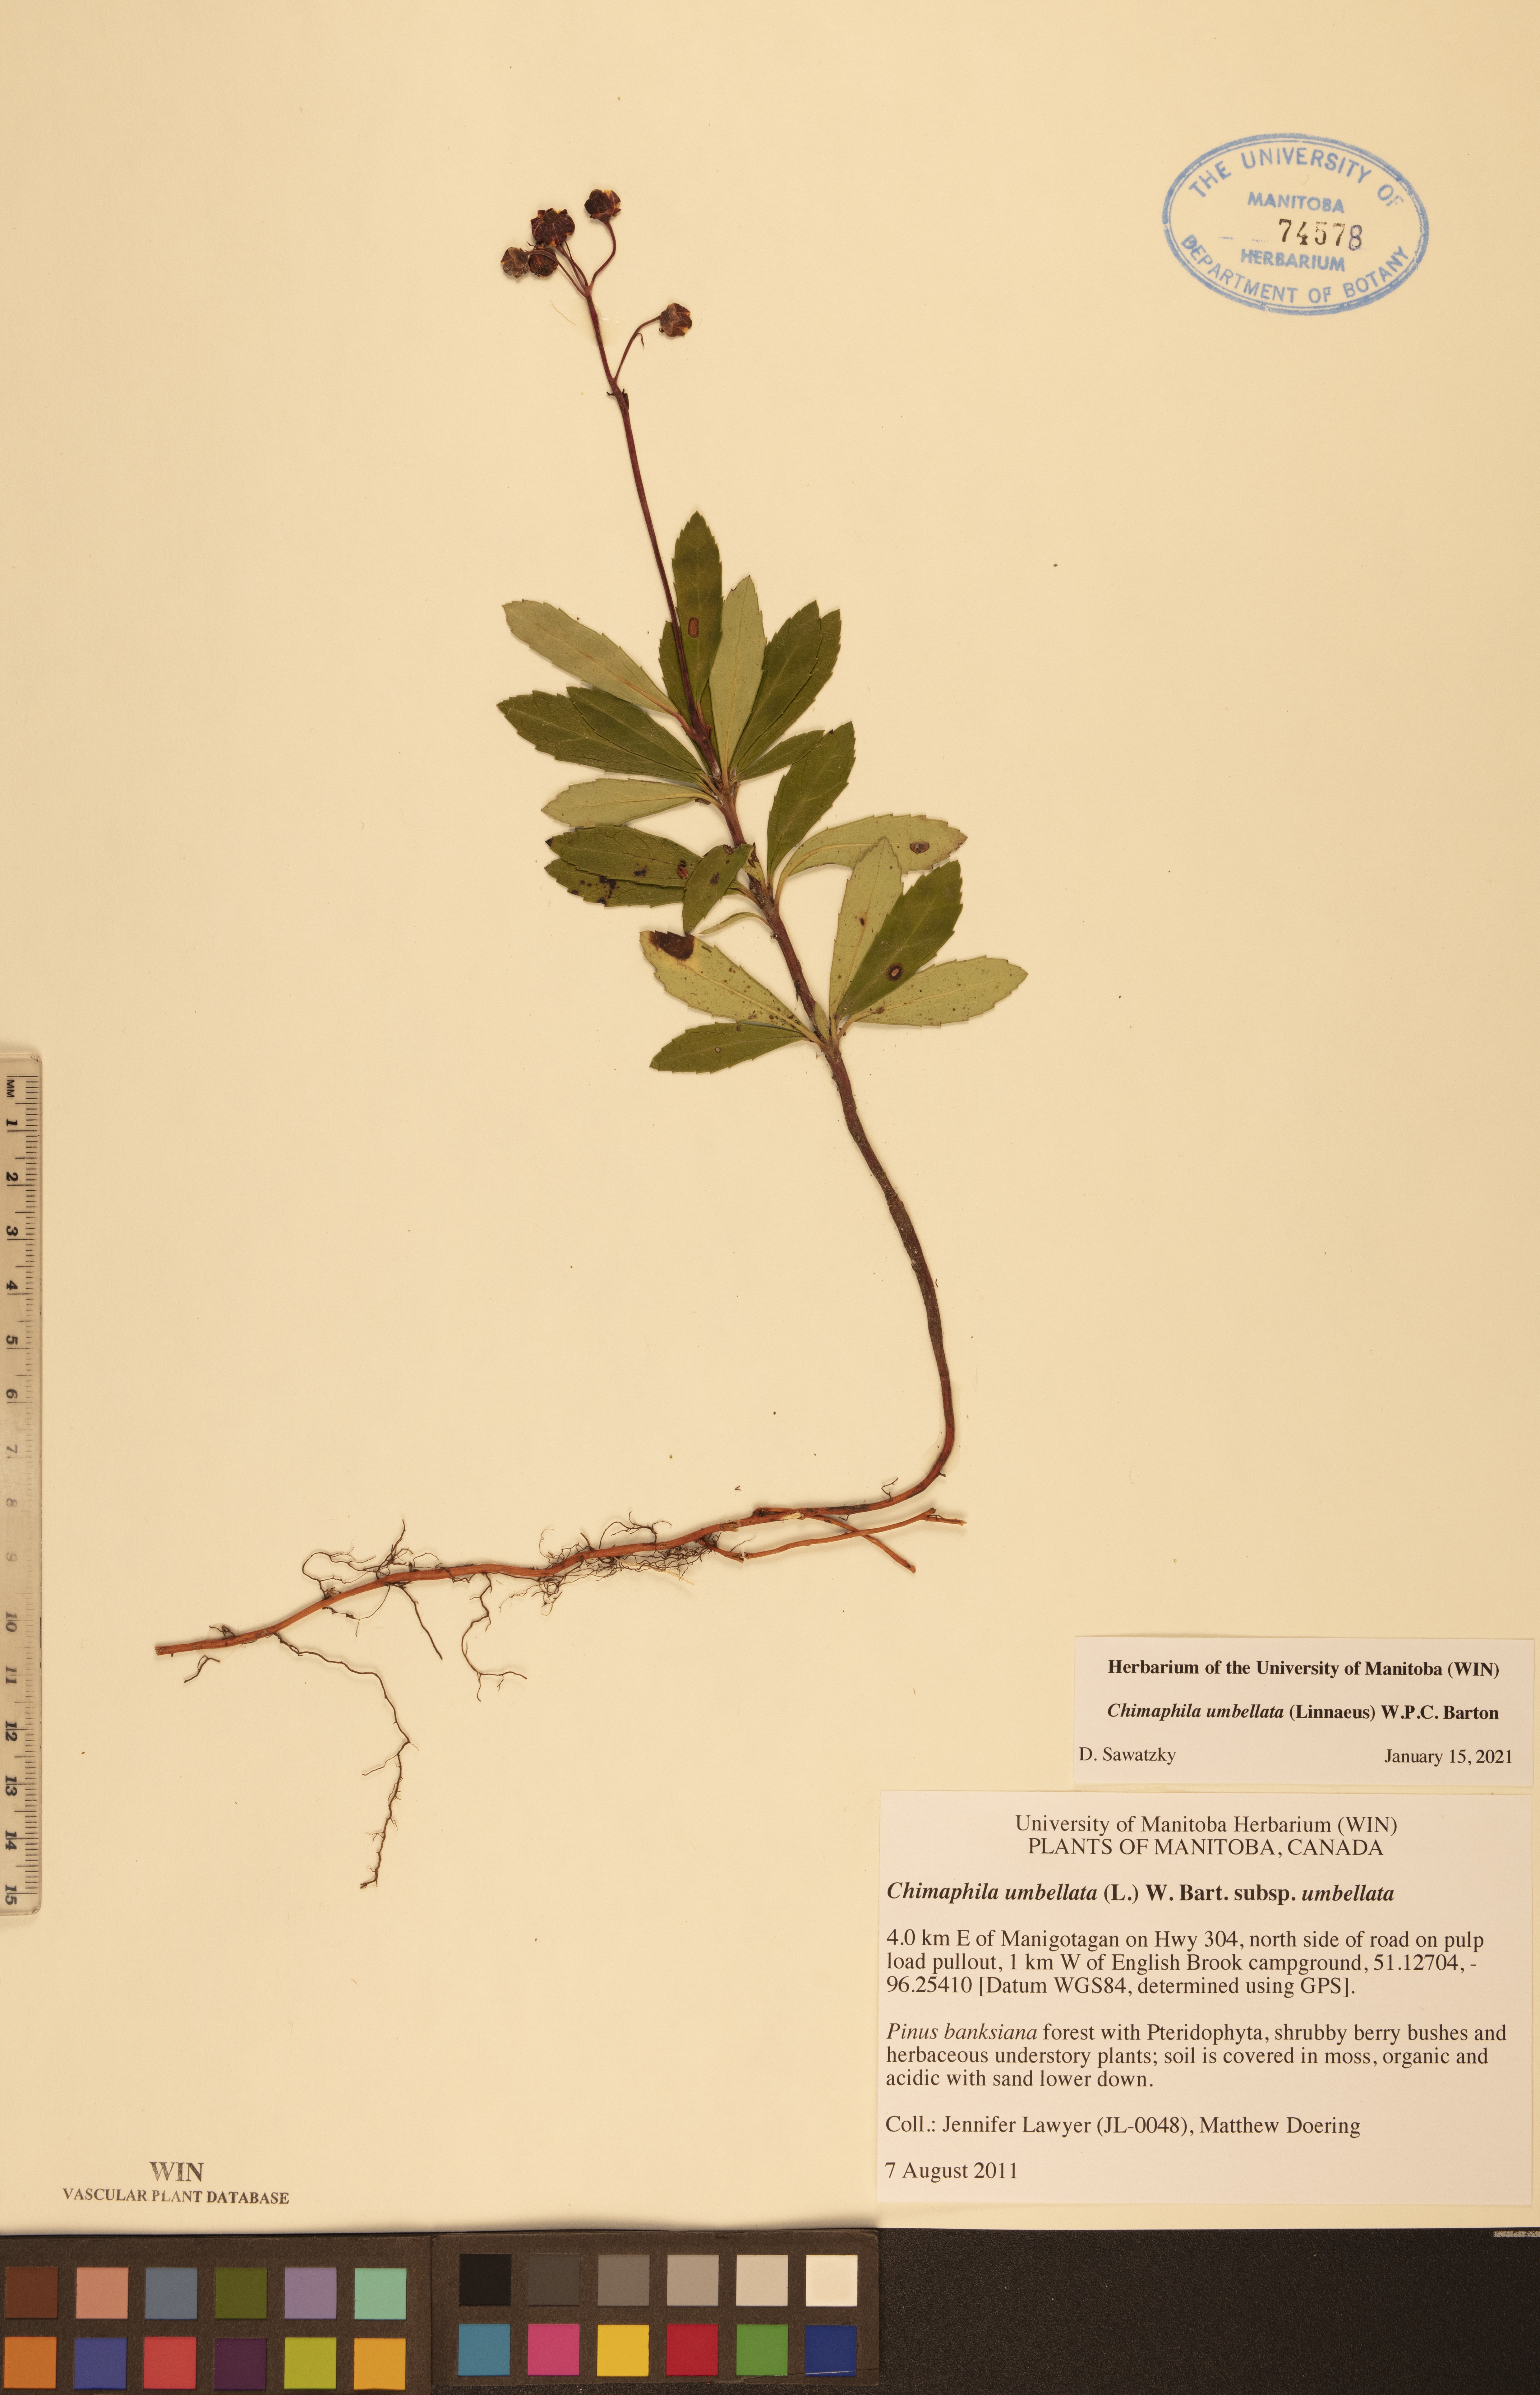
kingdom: Plantae
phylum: Tracheophyta
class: Magnoliopsida
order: Ericales
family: Ericaceae
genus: Chimaphila
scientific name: Chimaphila umbellata
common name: Pipsissewa
